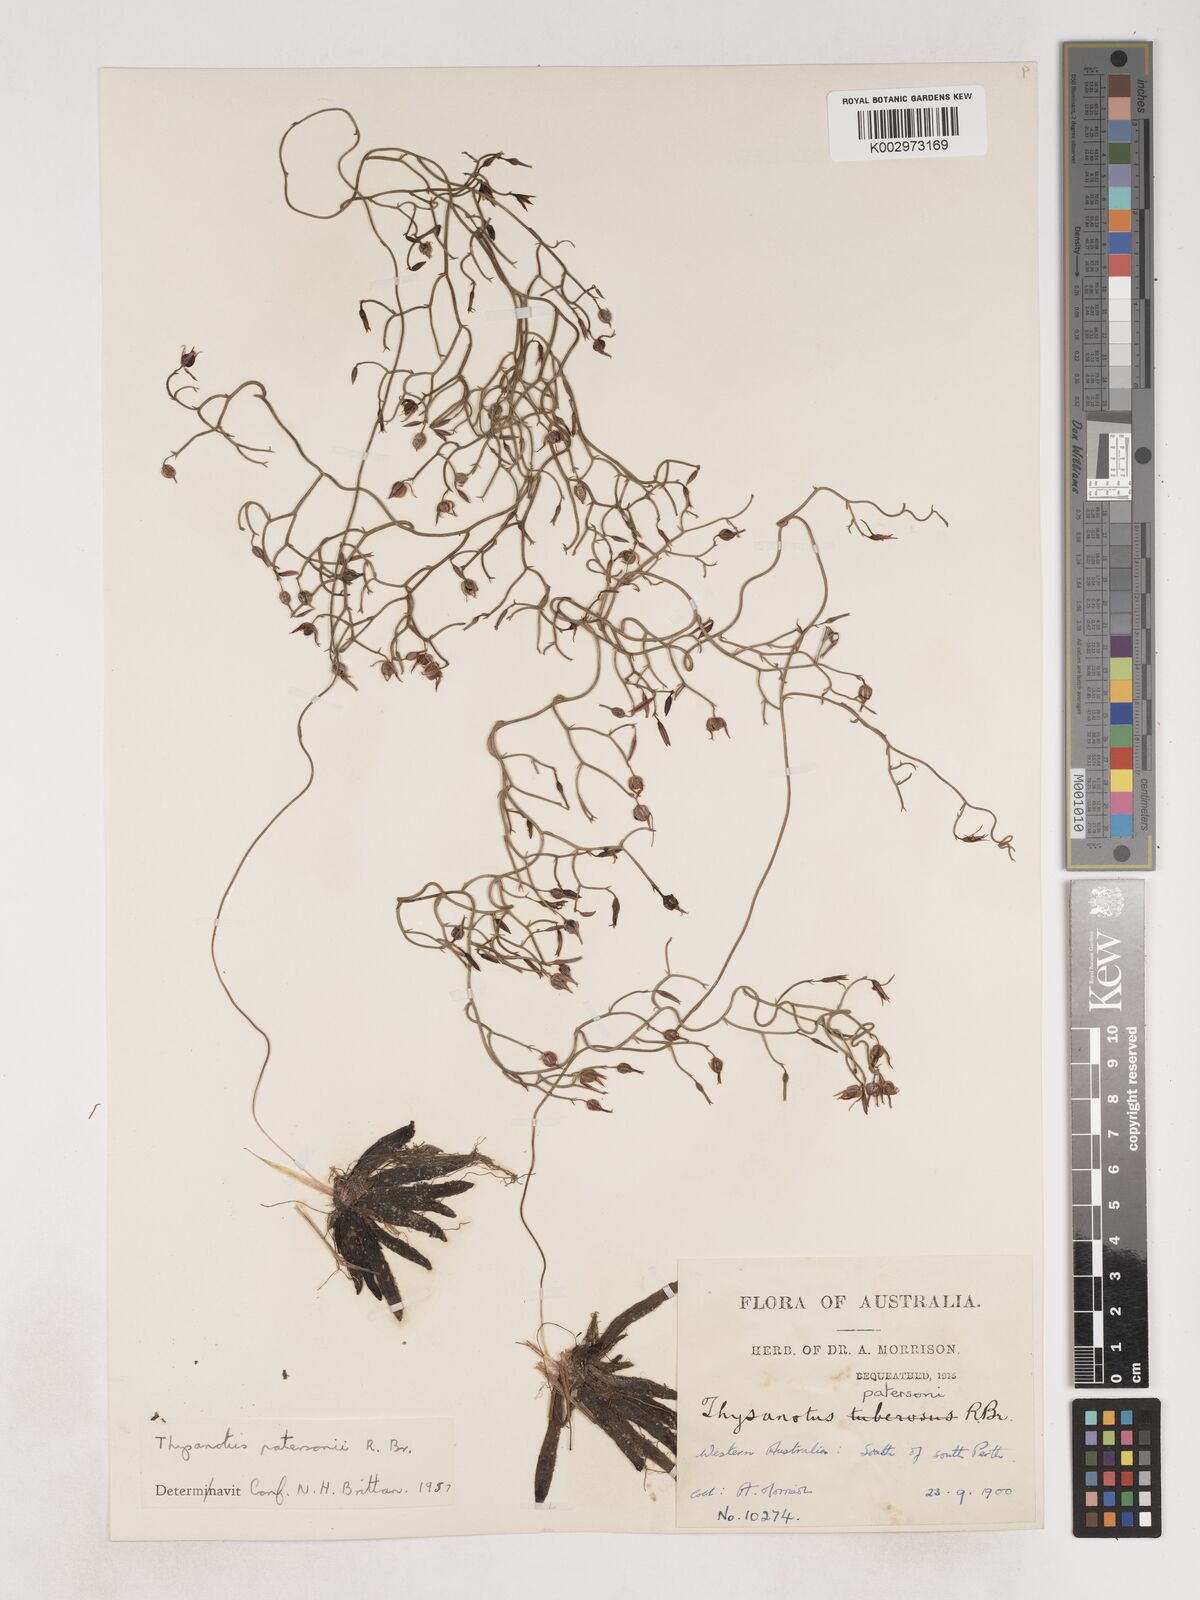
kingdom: Plantae
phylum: Tracheophyta
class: Liliopsida
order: Asparagales
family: Asparagaceae
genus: Thysanotus
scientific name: Thysanotus patersonii
